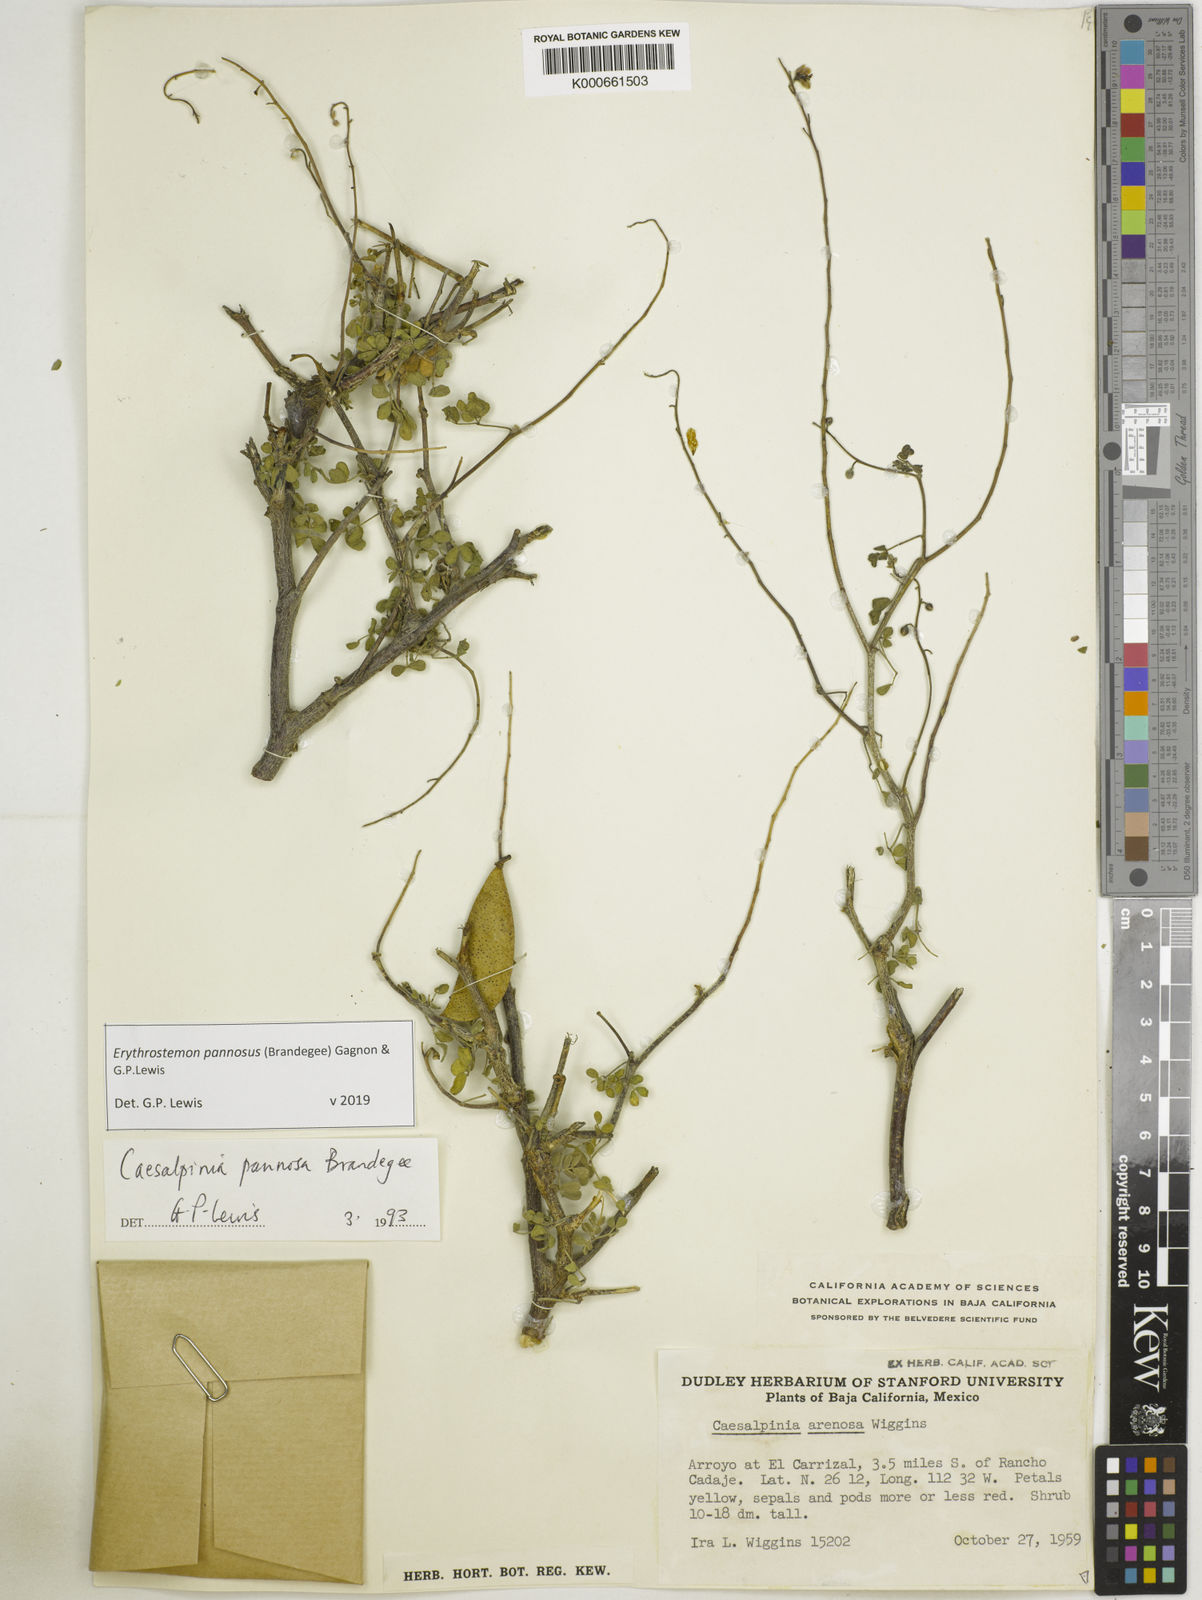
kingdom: Plantae
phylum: Tracheophyta
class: Magnoliopsida
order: Fabales
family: Fabaceae
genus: Erythrostemon
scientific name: Erythrostemon pannosus
